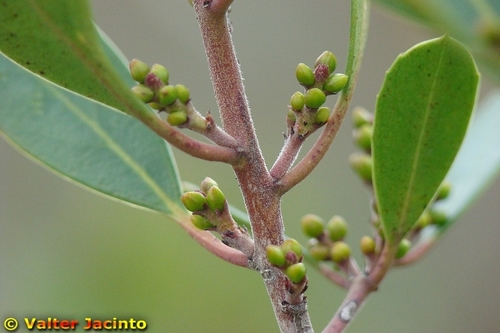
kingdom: Plantae
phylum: Tracheophyta
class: Magnoliopsida
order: Rosales
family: Rhamnaceae
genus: Rhamnus
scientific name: Rhamnus alaternus
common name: Mediterranean buckthorn
